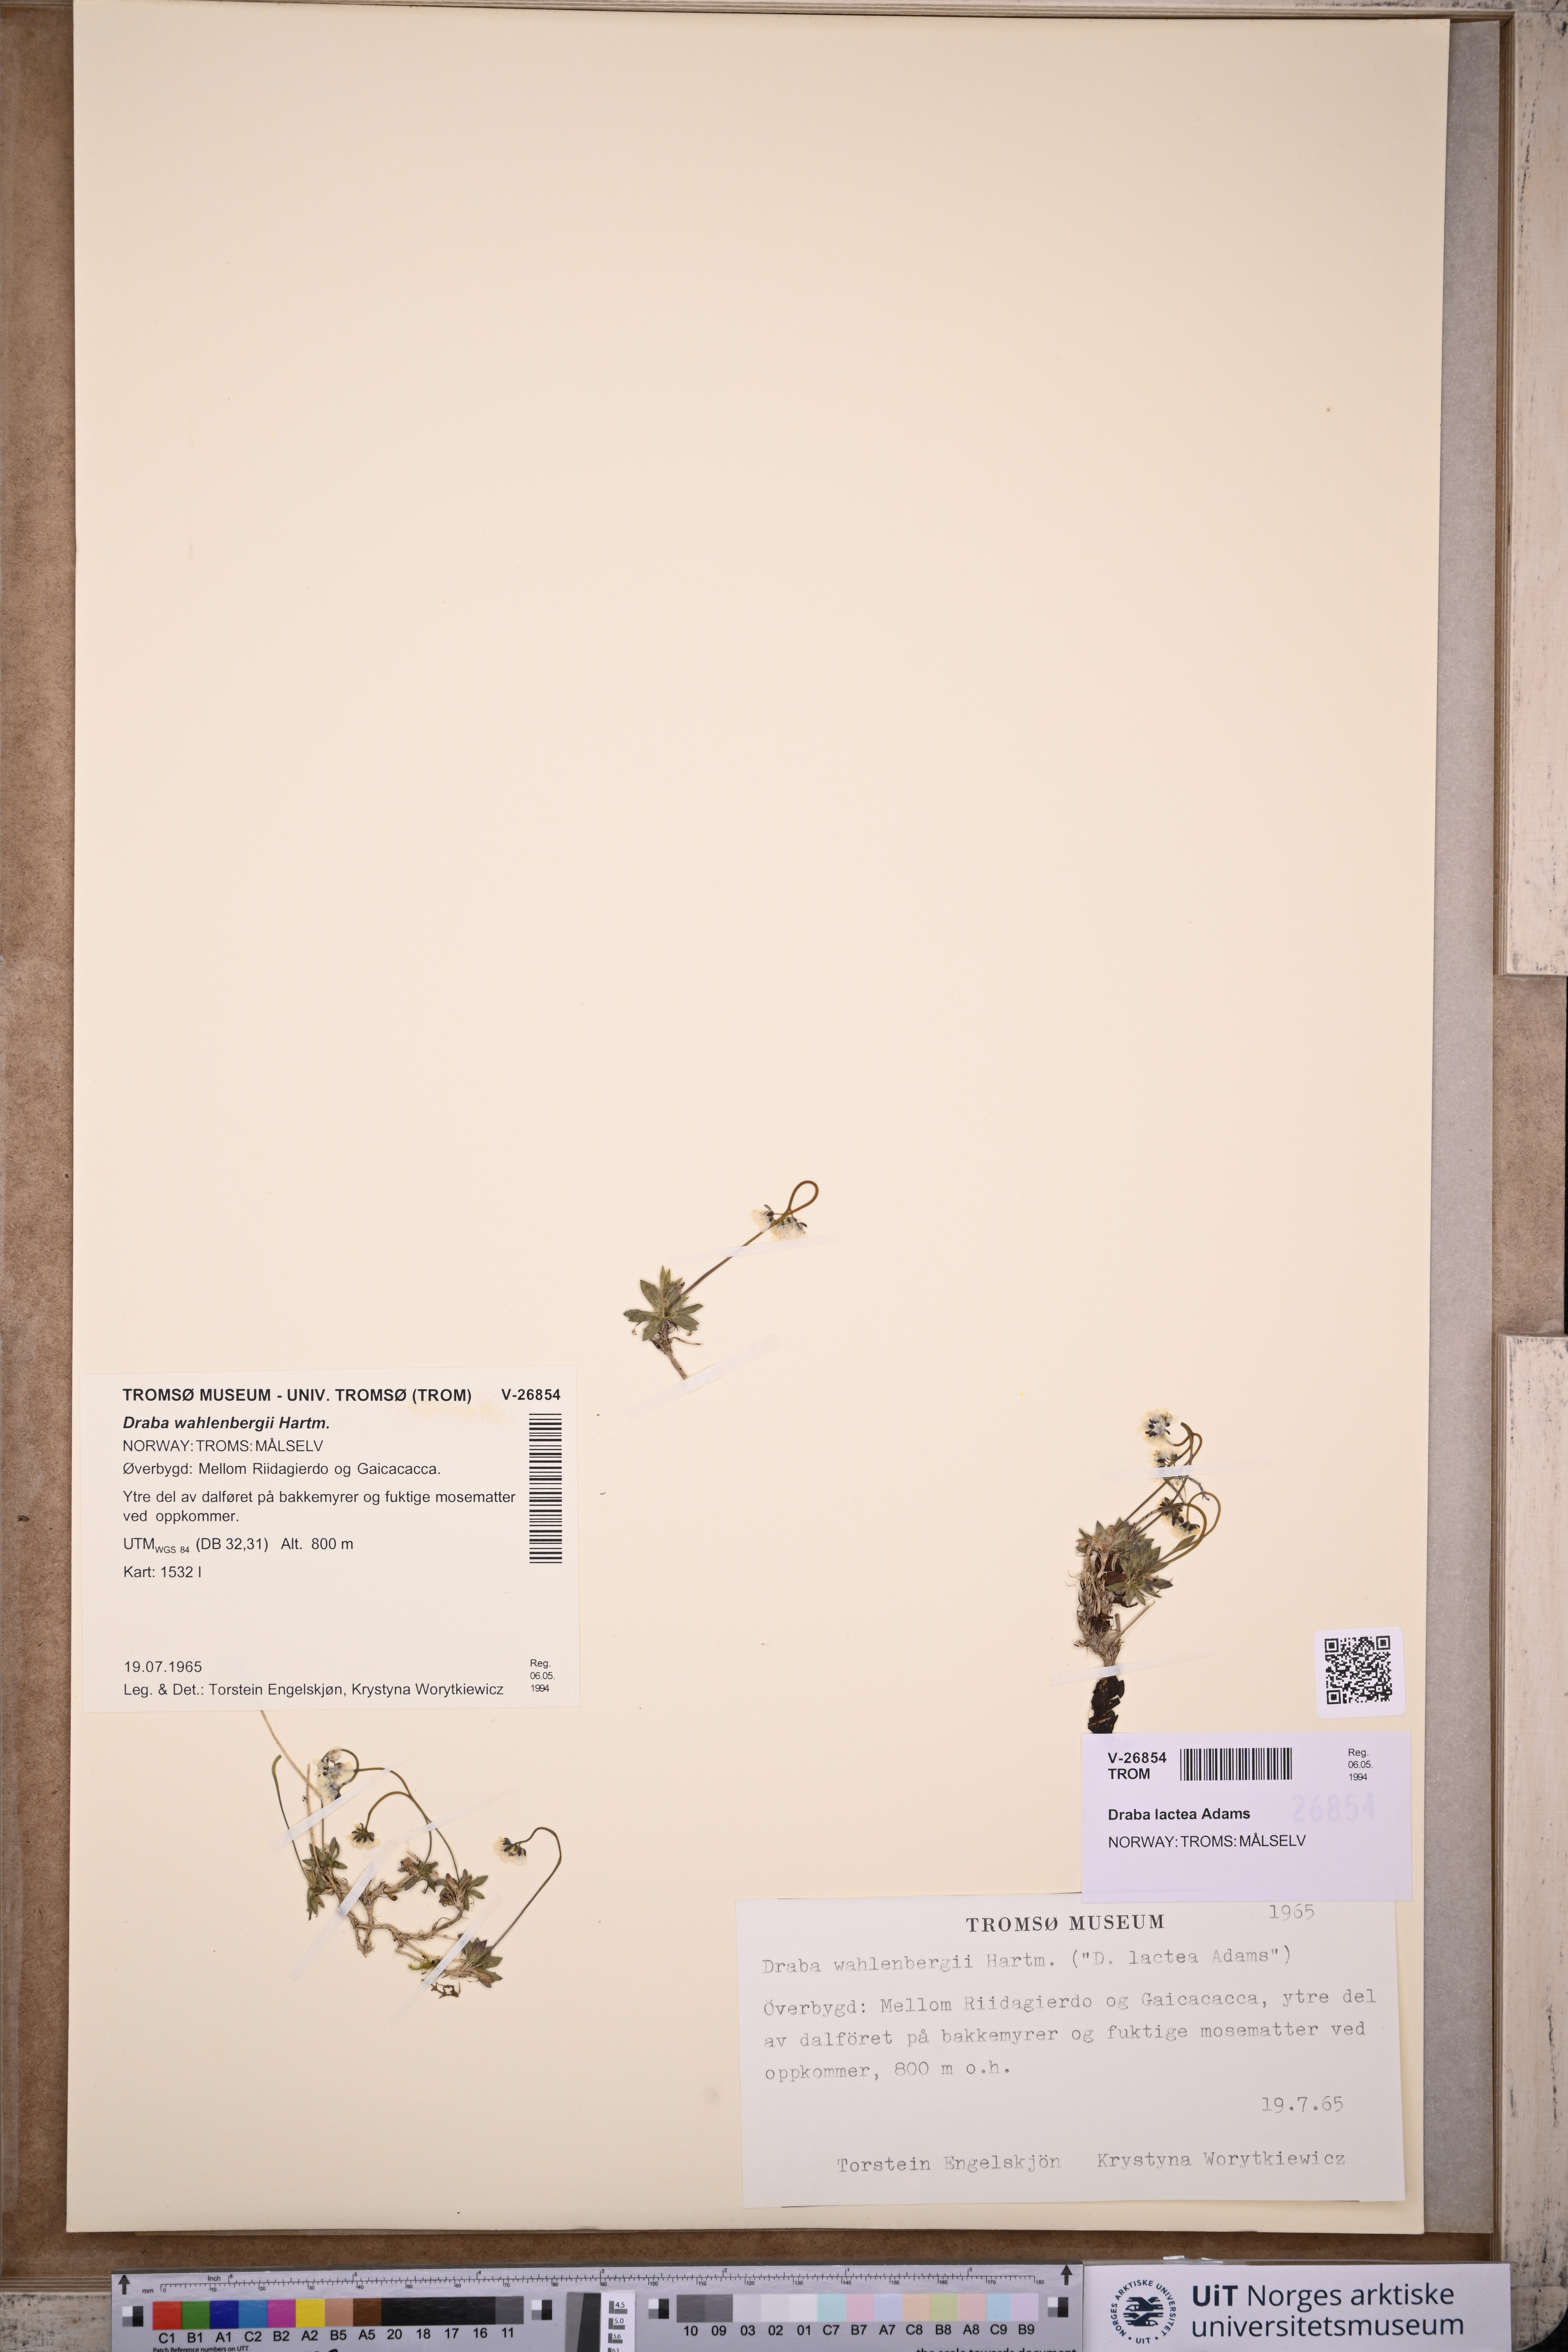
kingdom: Plantae
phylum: Tracheophyta
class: Magnoliopsida
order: Brassicales
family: Brassicaceae
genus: Draba
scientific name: Draba lactea
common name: Milky draba
